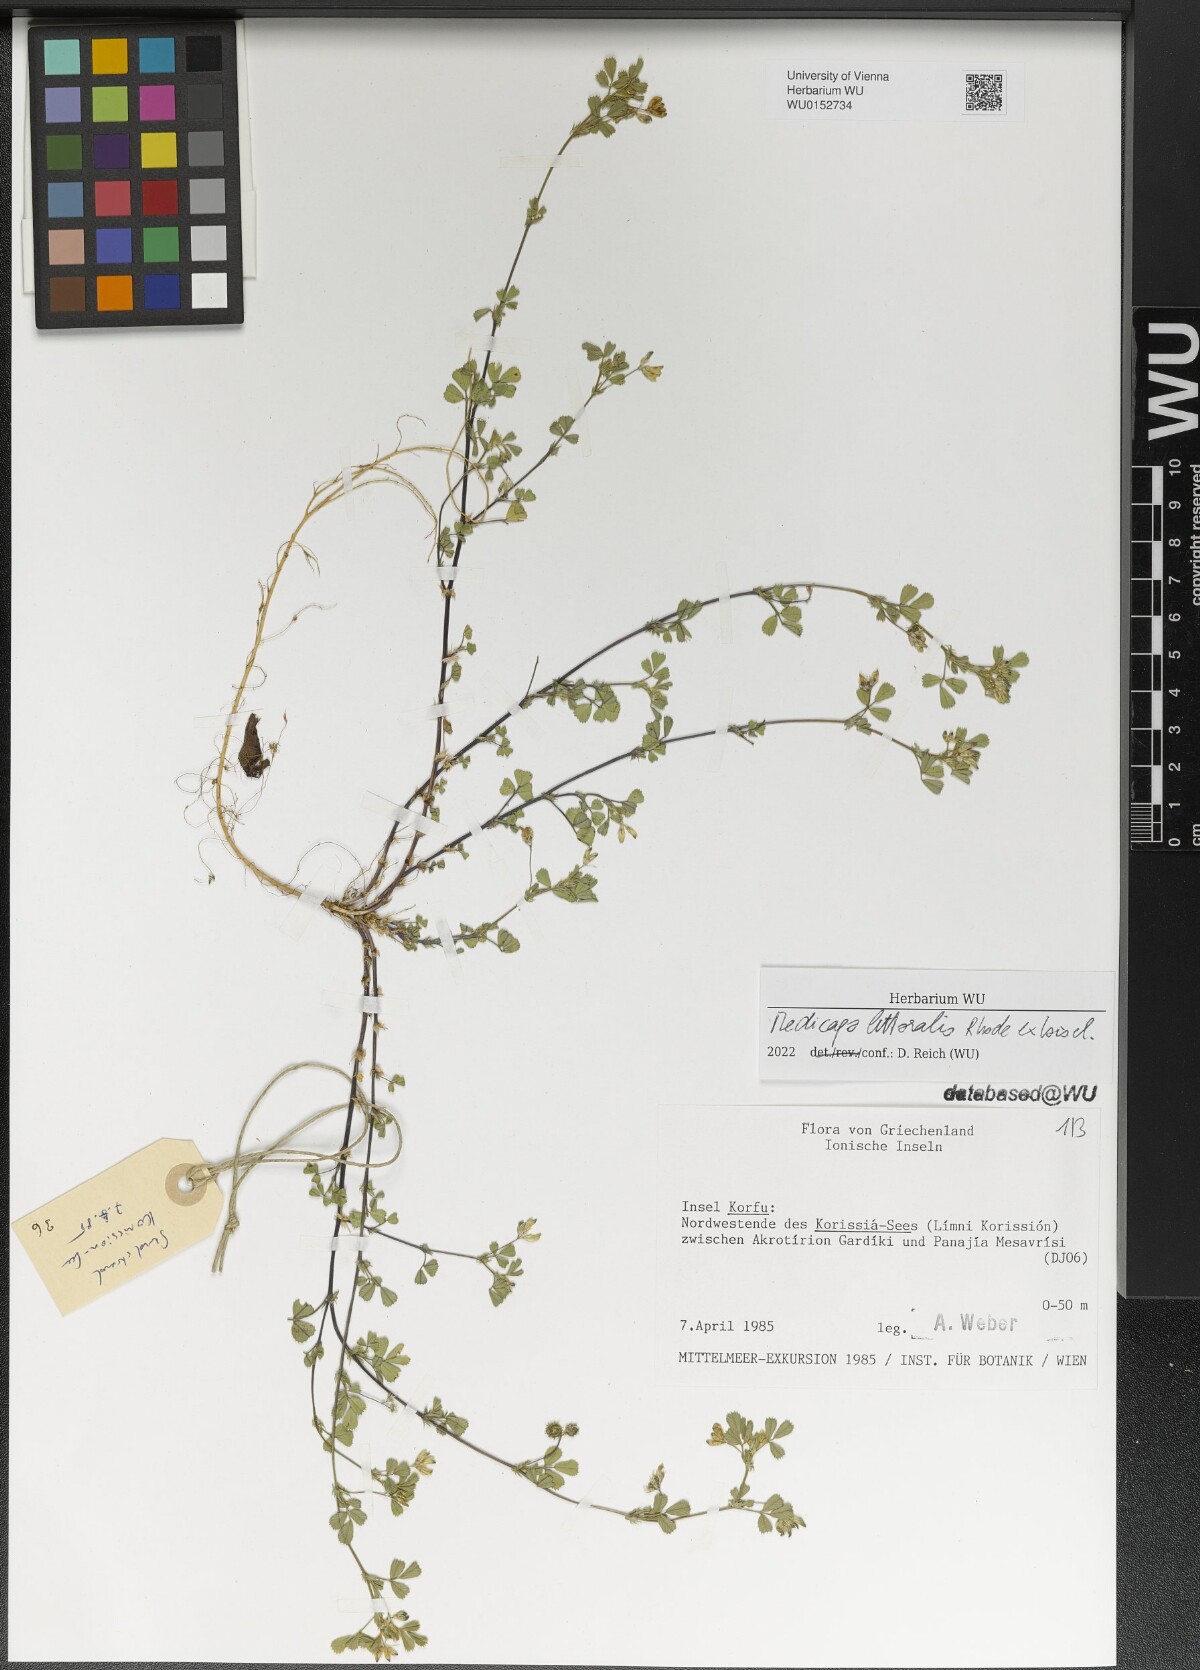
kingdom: Plantae
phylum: Tracheophyta
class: Magnoliopsida
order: Fabales
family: Fabaceae
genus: Medicago
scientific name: Medicago littoralis
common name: Shore medick
